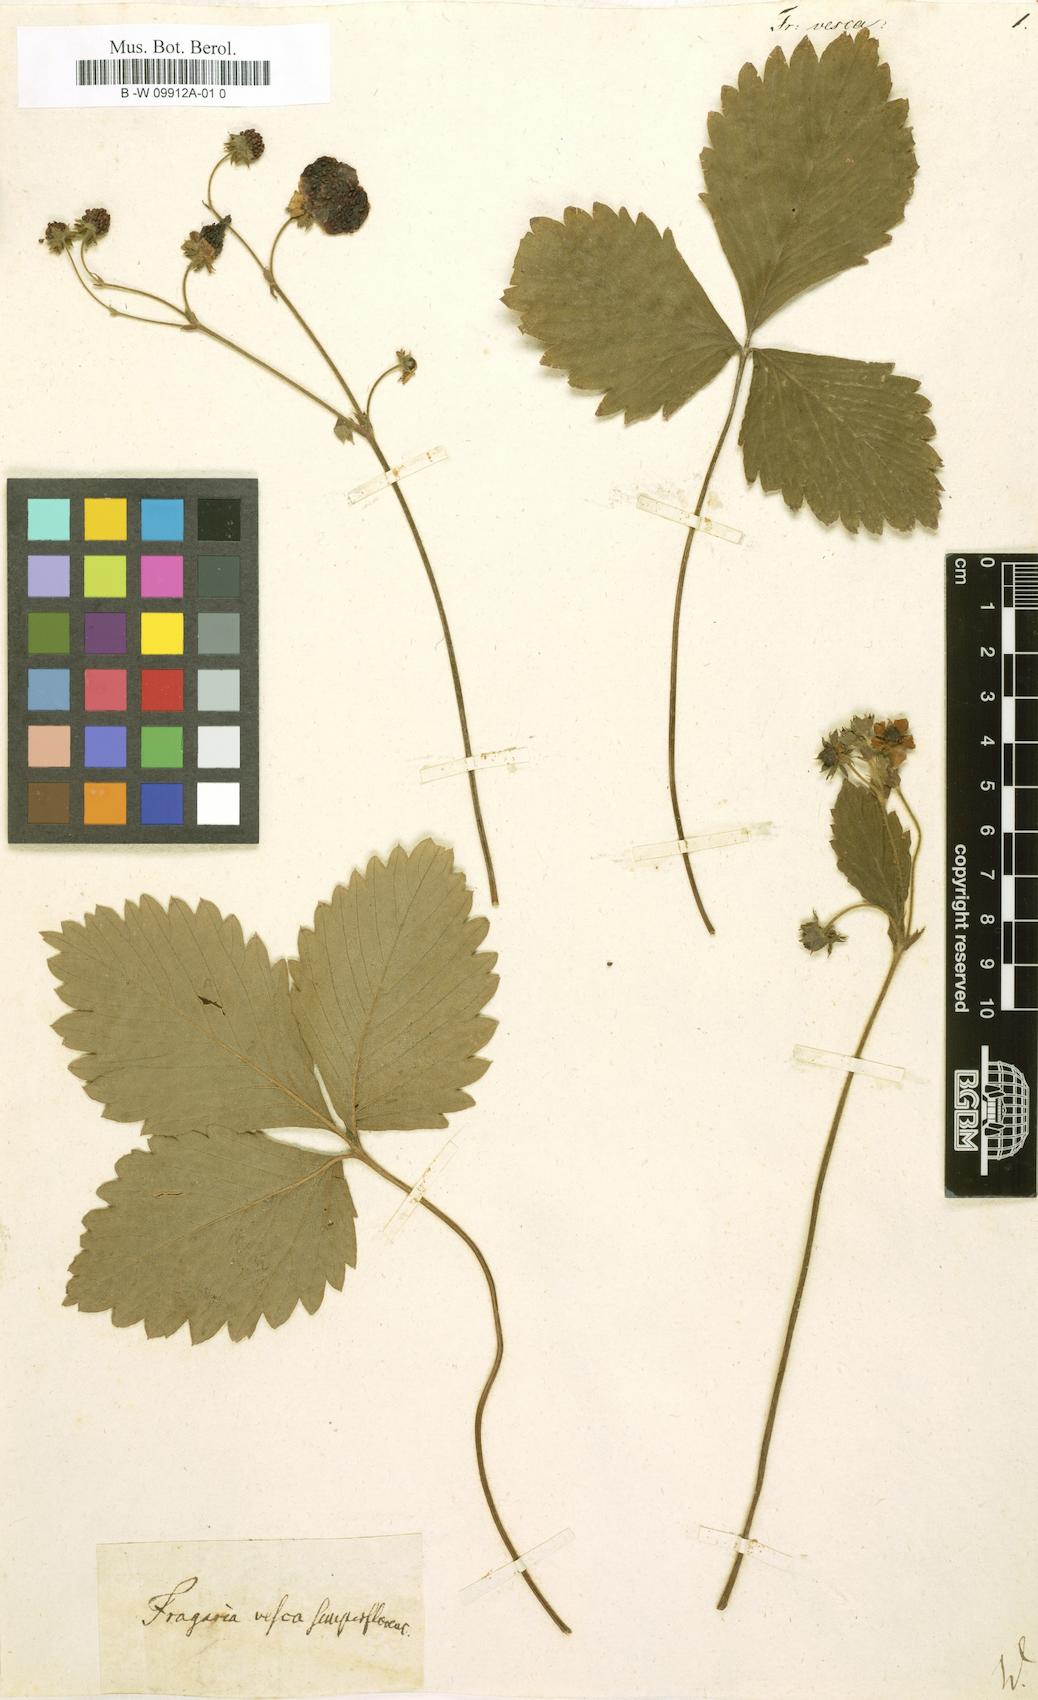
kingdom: Plantae
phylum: Tracheophyta
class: Magnoliopsida
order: Rosales
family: Rosaceae
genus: Fragaria
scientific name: Fragaria vesca
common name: Wild strawberry
